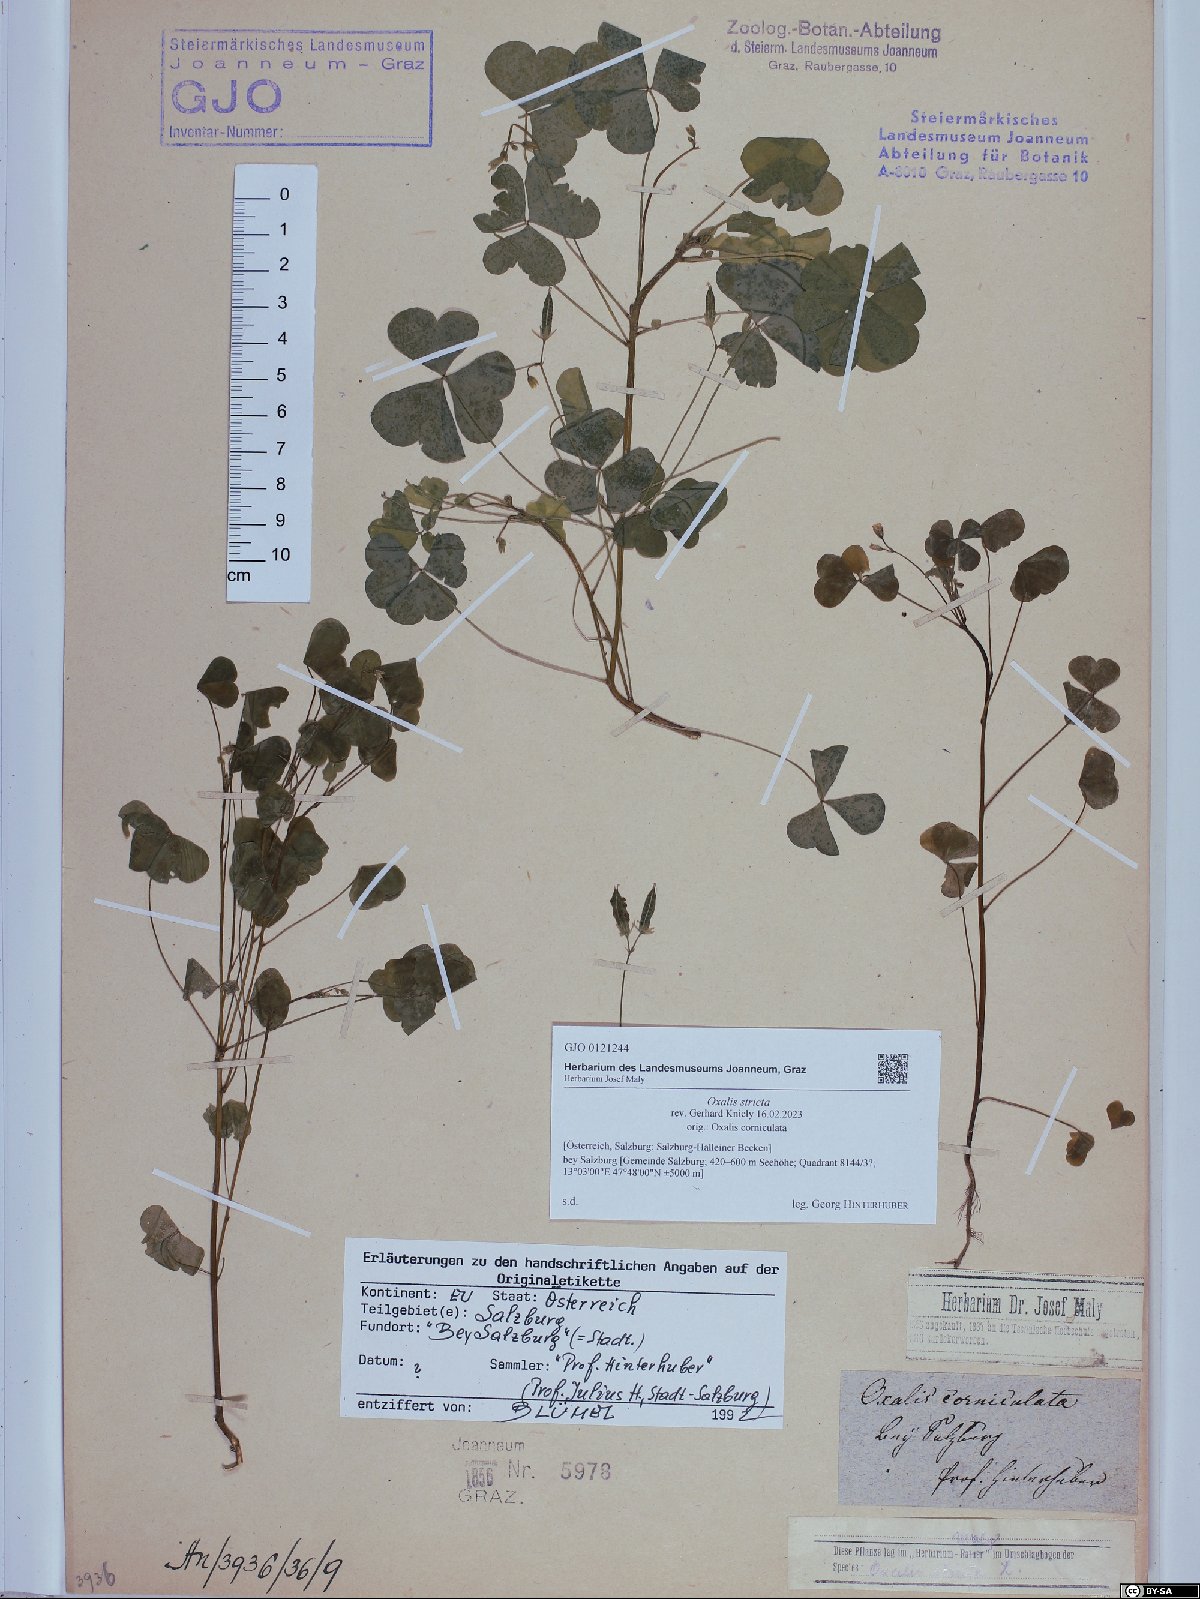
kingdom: Plantae
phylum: Tracheophyta
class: Magnoliopsida
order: Oxalidales
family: Oxalidaceae
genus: Oxalis
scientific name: Oxalis stricta
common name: Upright yellow-sorrel
